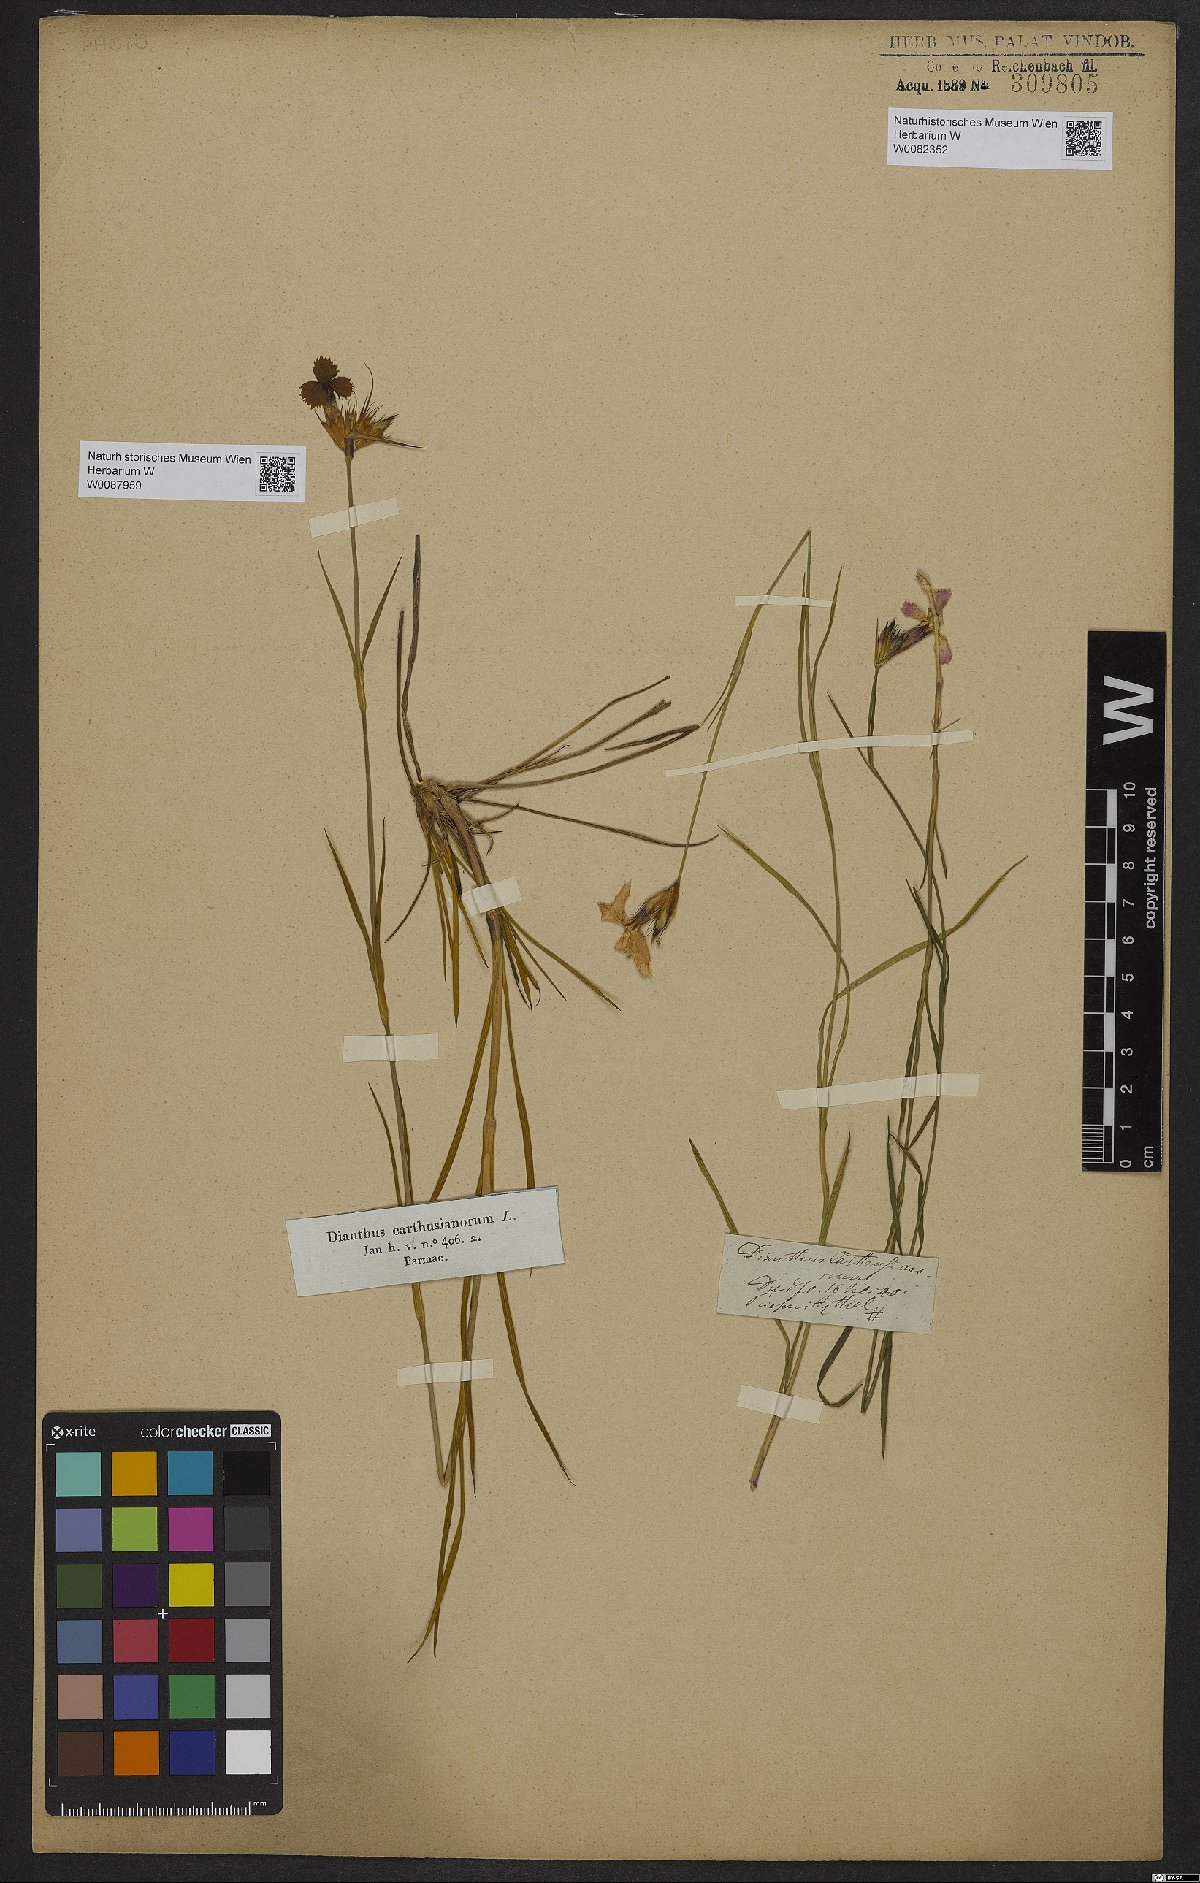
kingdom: Plantae
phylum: Tracheophyta
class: Magnoliopsida
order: Caryophyllales
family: Caryophyllaceae
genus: Dianthus
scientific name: Dianthus carthusianorum
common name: Carthusian pink
